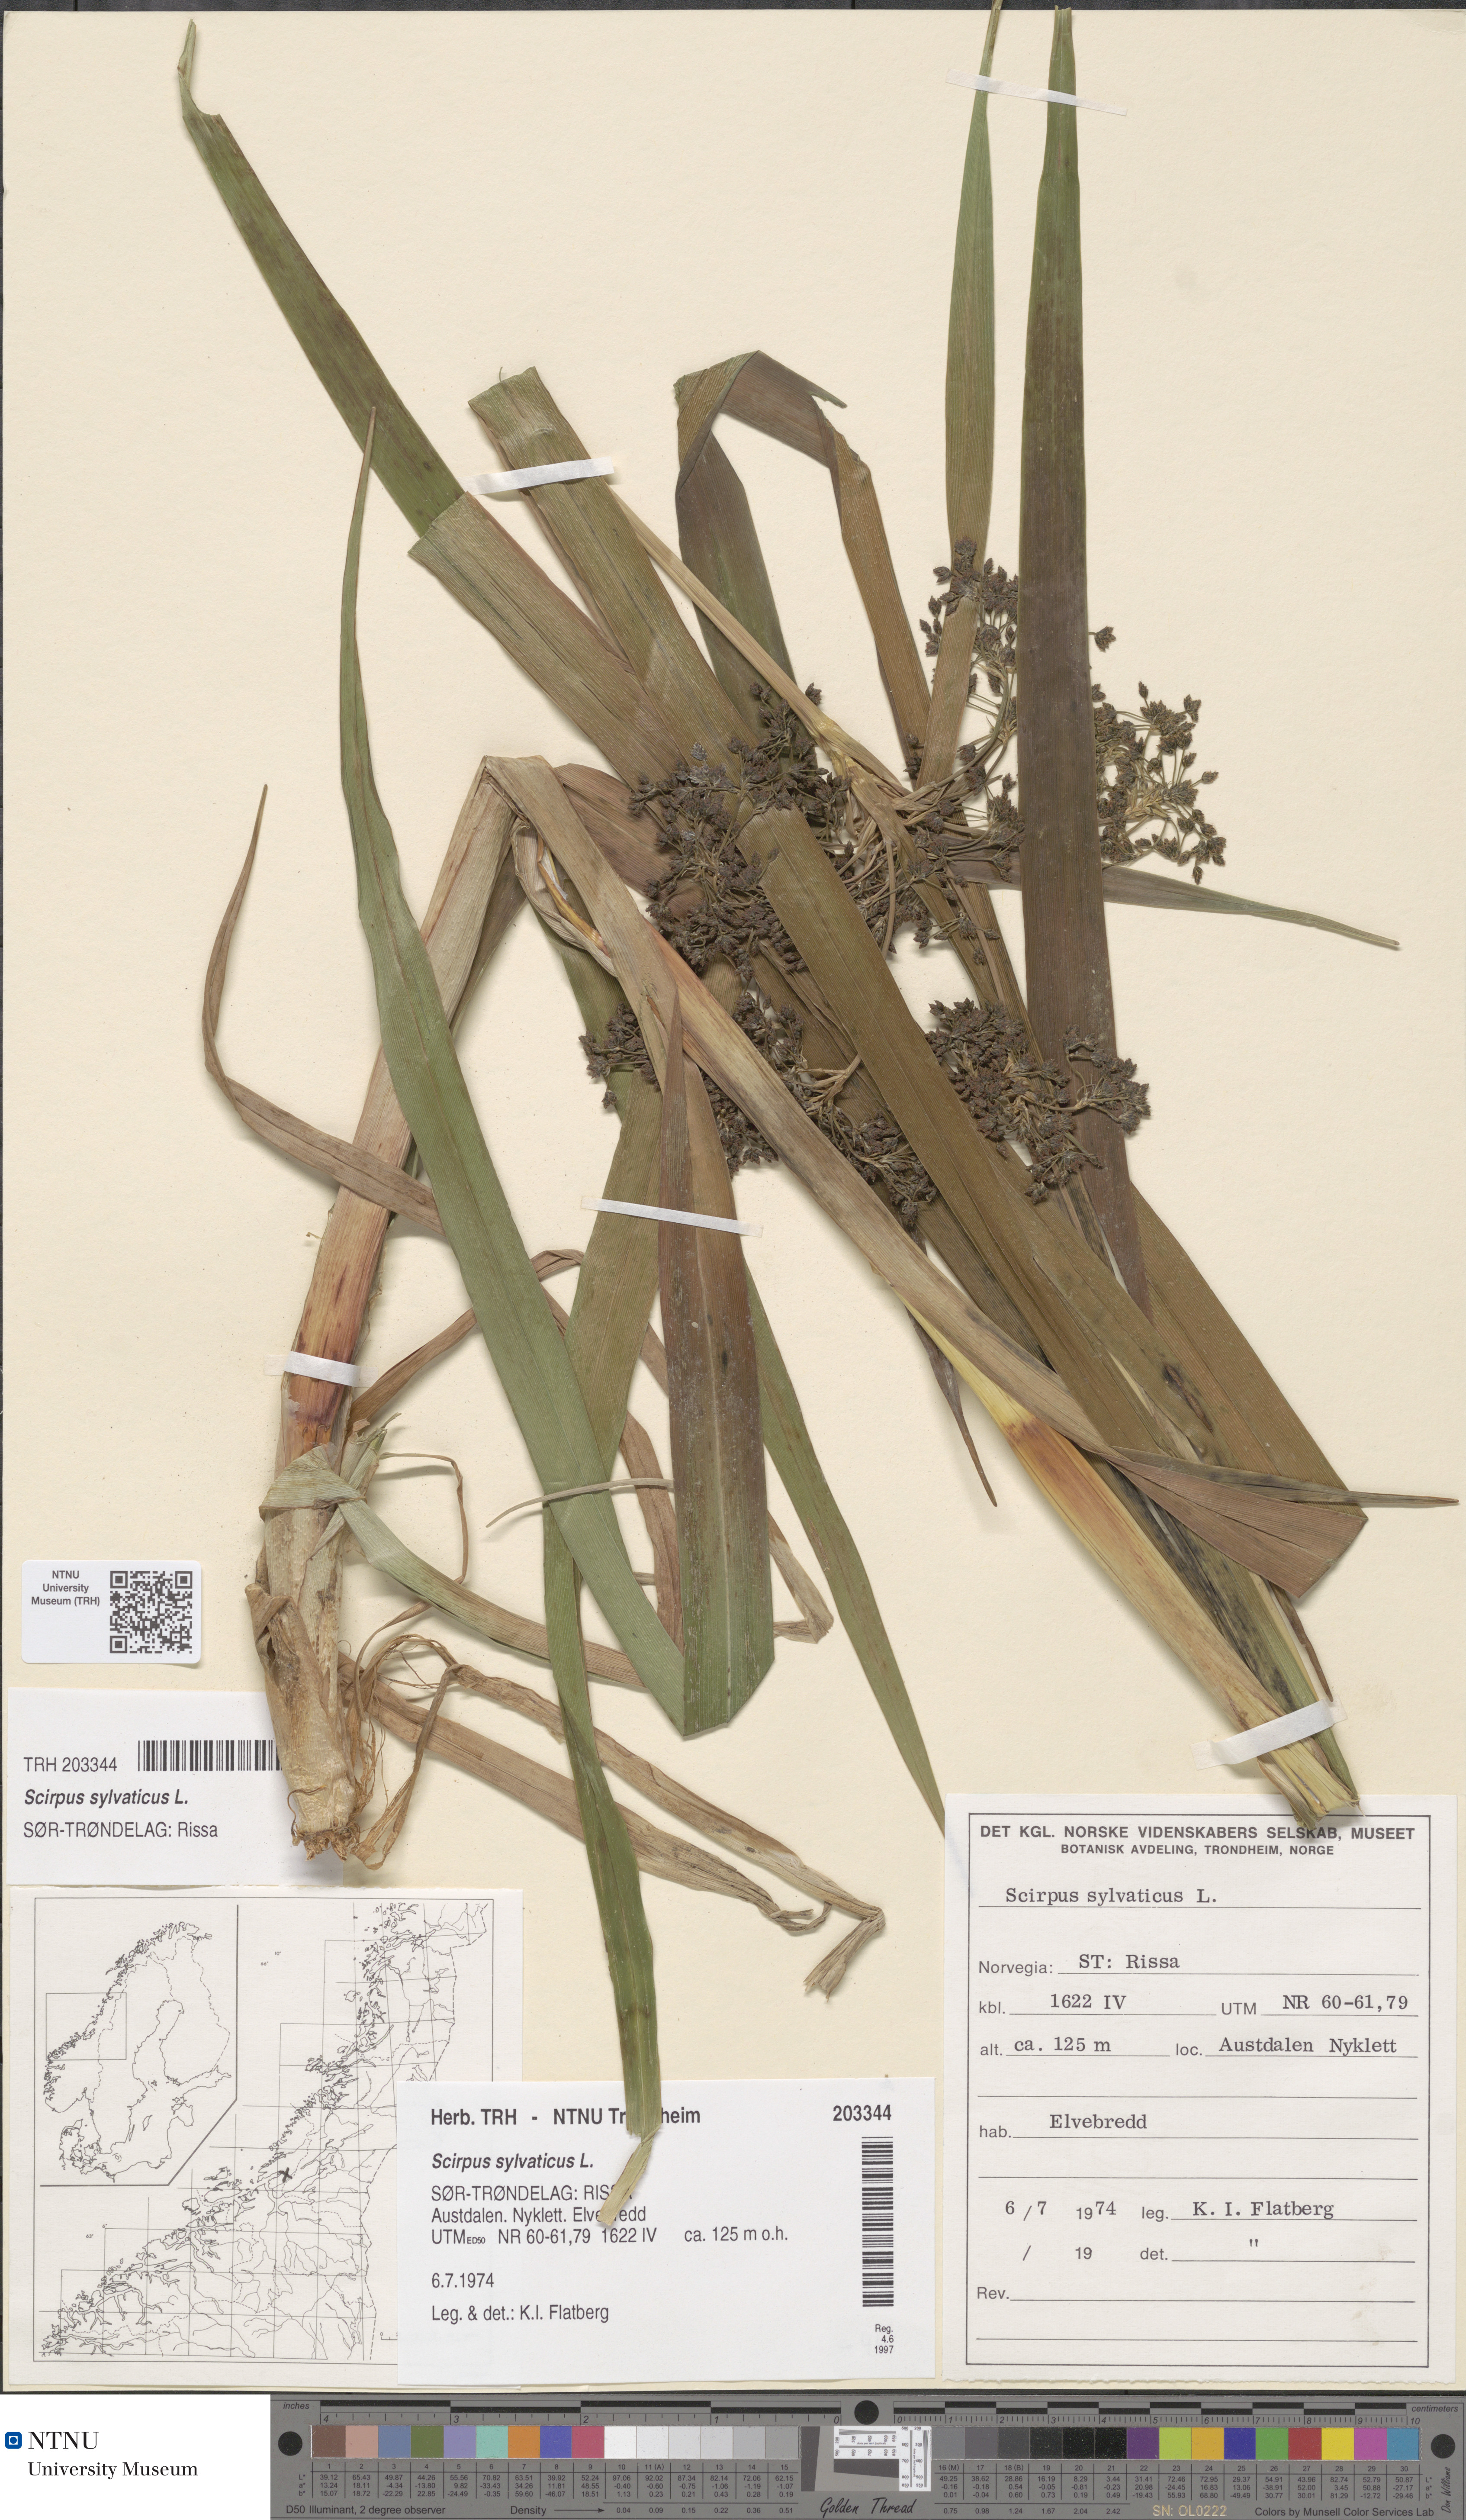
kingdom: Plantae
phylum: Tracheophyta
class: Liliopsida
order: Poales
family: Cyperaceae
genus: Scirpus
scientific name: Scirpus sylvaticus
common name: Wood club-rush
